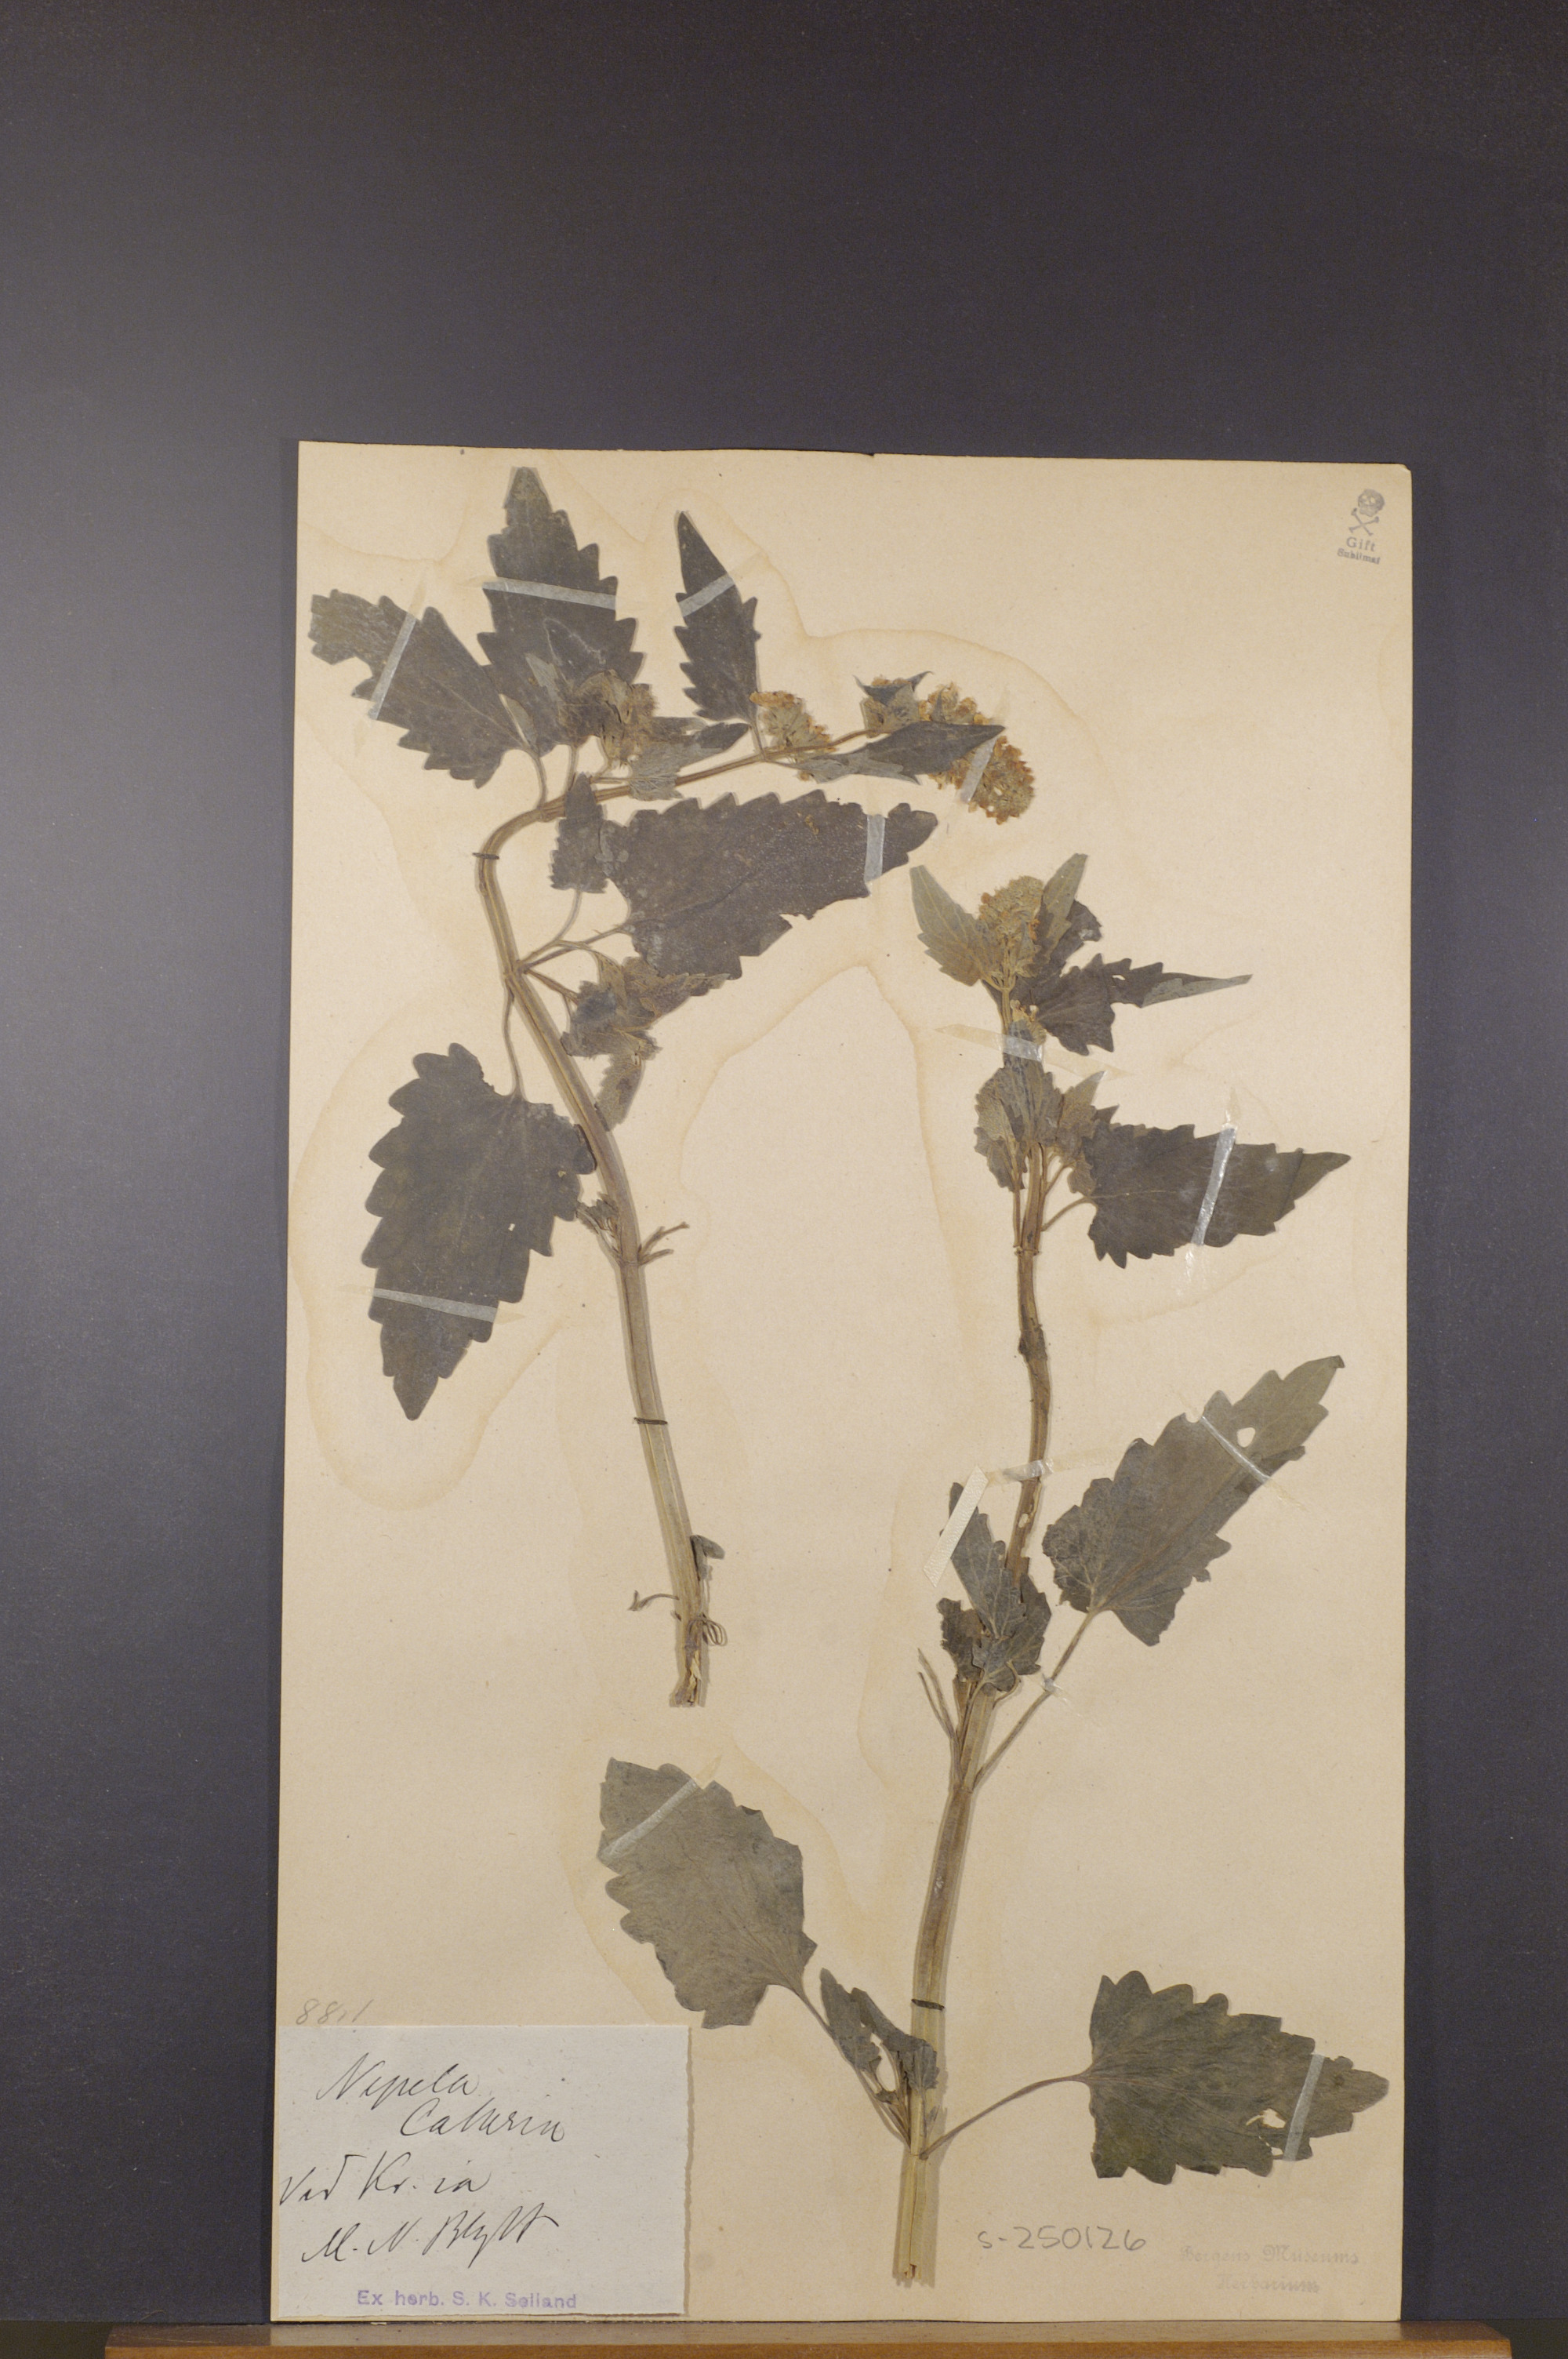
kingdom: Plantae
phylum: Tracheophyta
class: Magnoliopsida
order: Lamiales
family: Lamiaceae
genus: Nepeta
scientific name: Nepeta cataria
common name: Catnip
